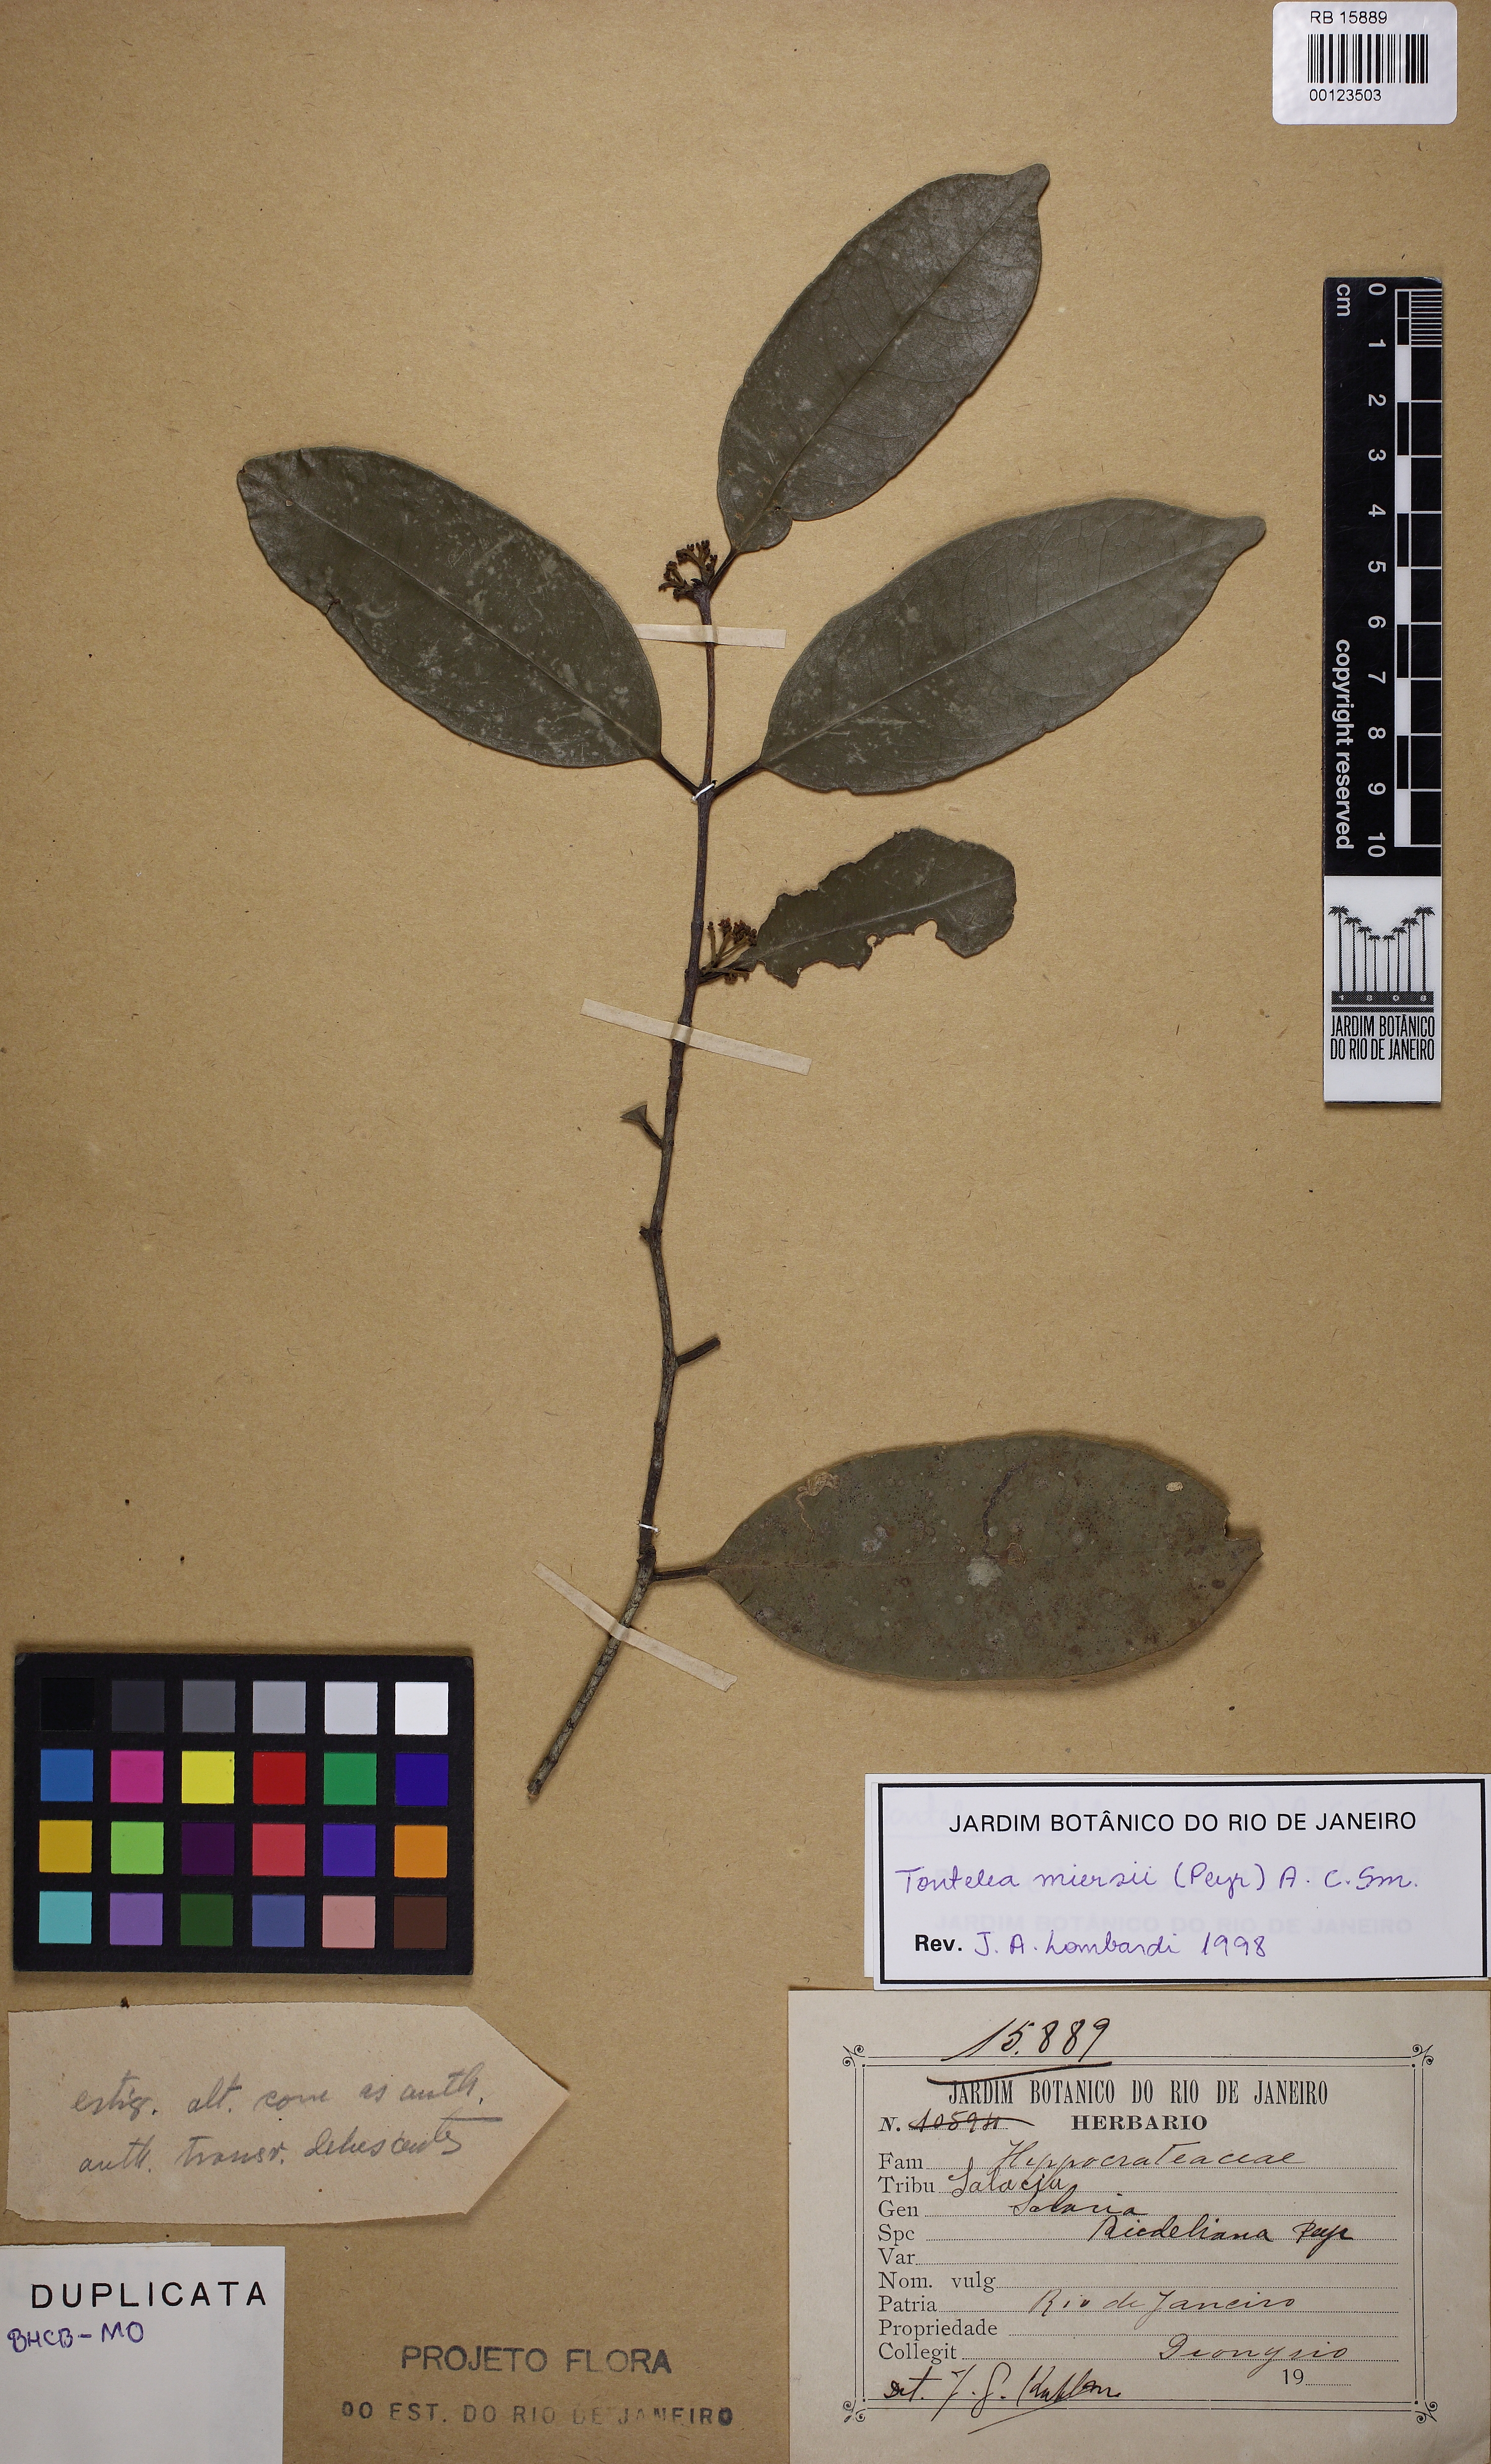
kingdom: Plantae
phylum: Tracheophyta
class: Magnoliopsida
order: Celastrales
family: Celastraceae
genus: Tontelea
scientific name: Tontelea miersii
